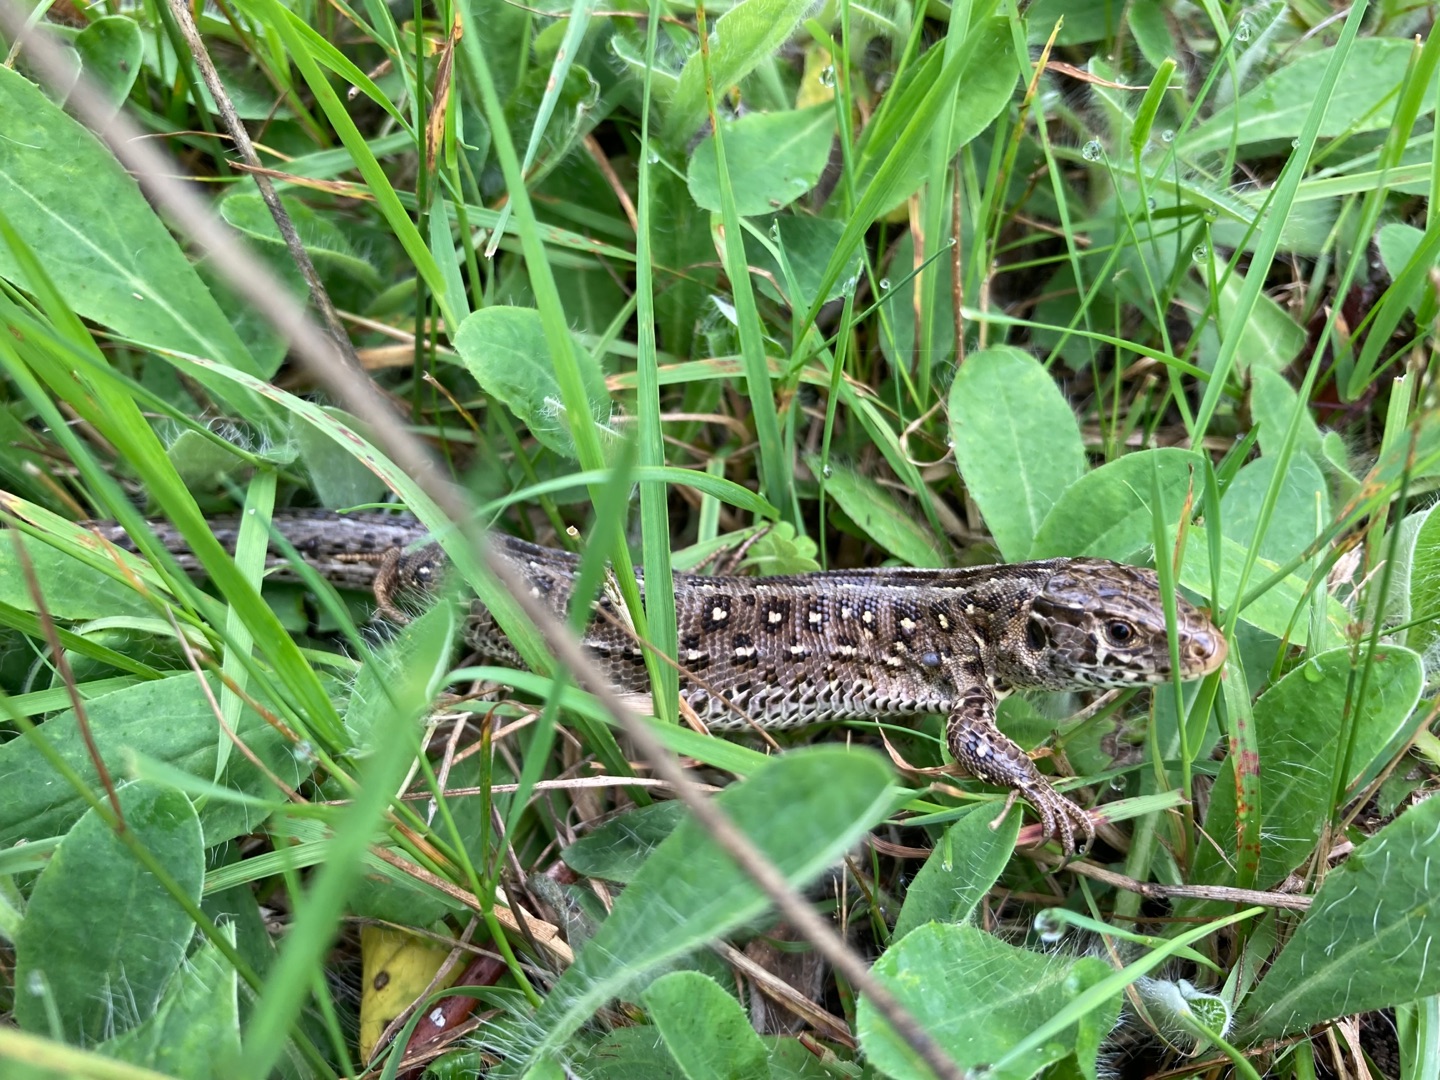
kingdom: Animalia
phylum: Chordata
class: Squamata
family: Lacertidae
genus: Lacerta
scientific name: Lacerta agilis
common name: Markfirben
